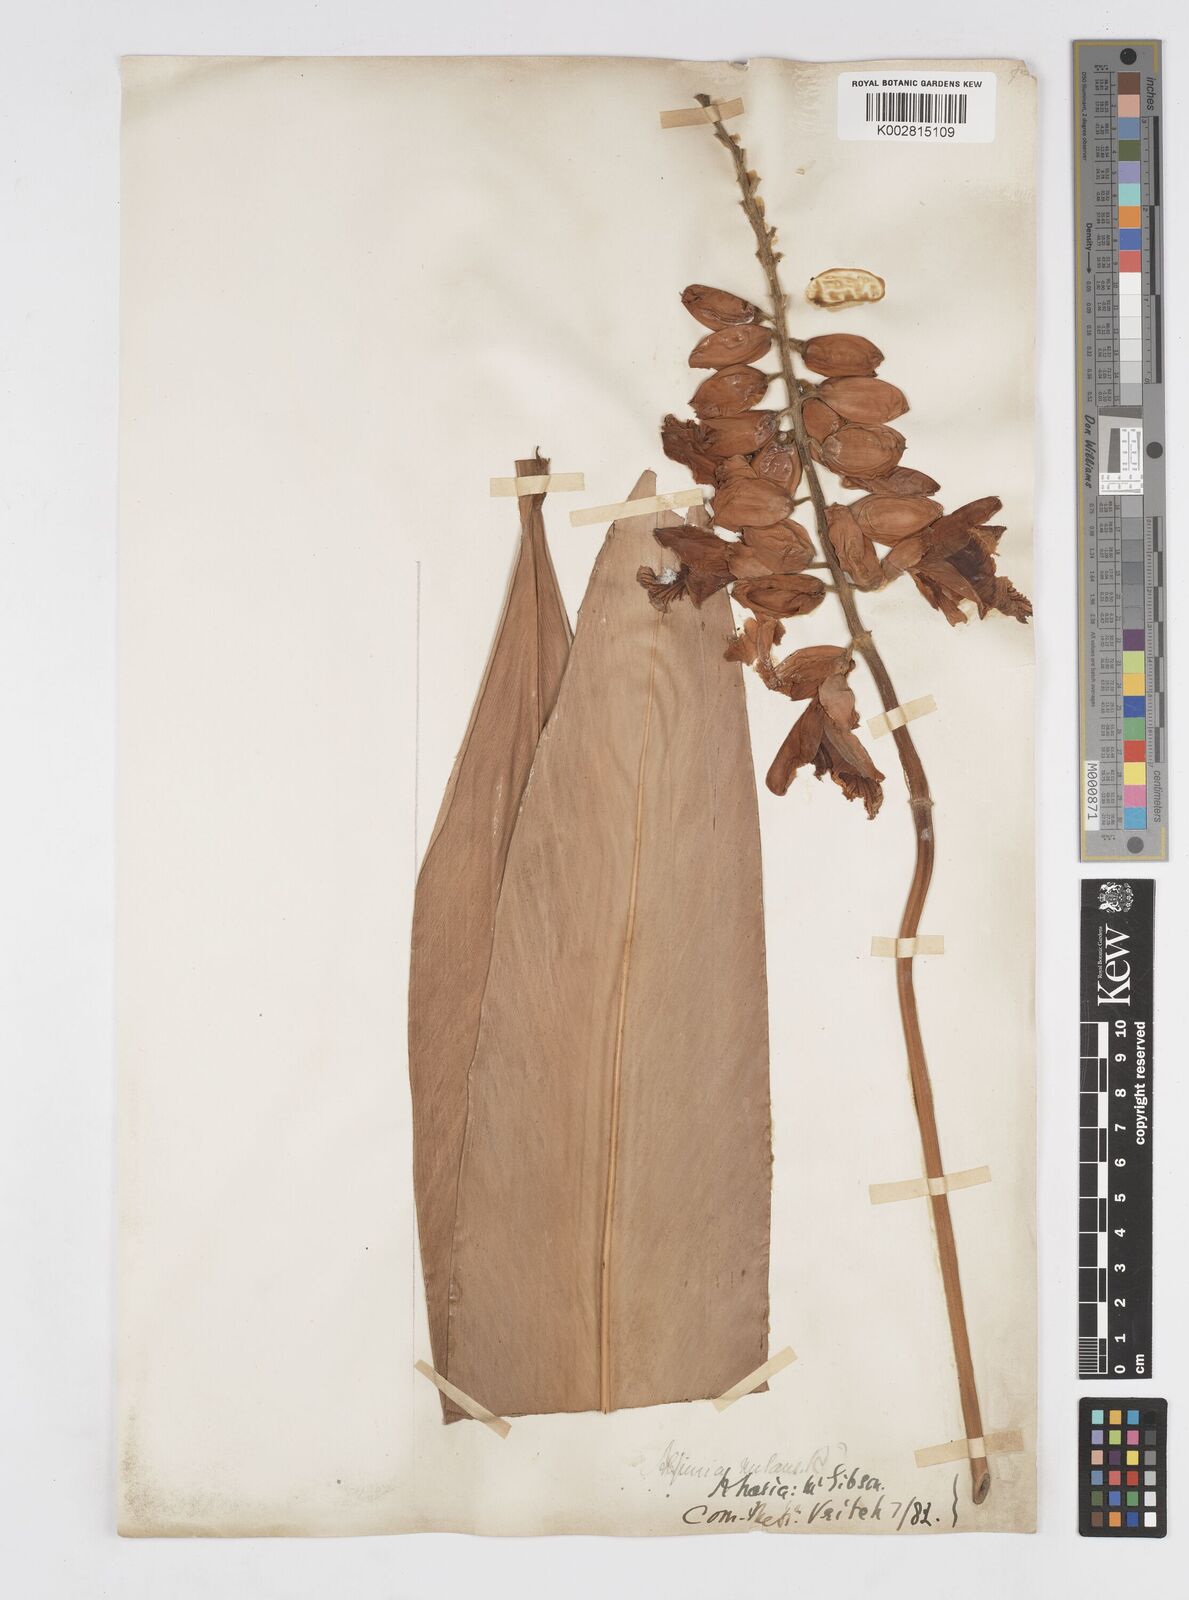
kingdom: Plantae
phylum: Tracheophyta
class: Liliopsida
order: Zingiberales
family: Zingiberaceae
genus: Alpinia
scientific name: Alpinia zerumbet
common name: Shellplant
